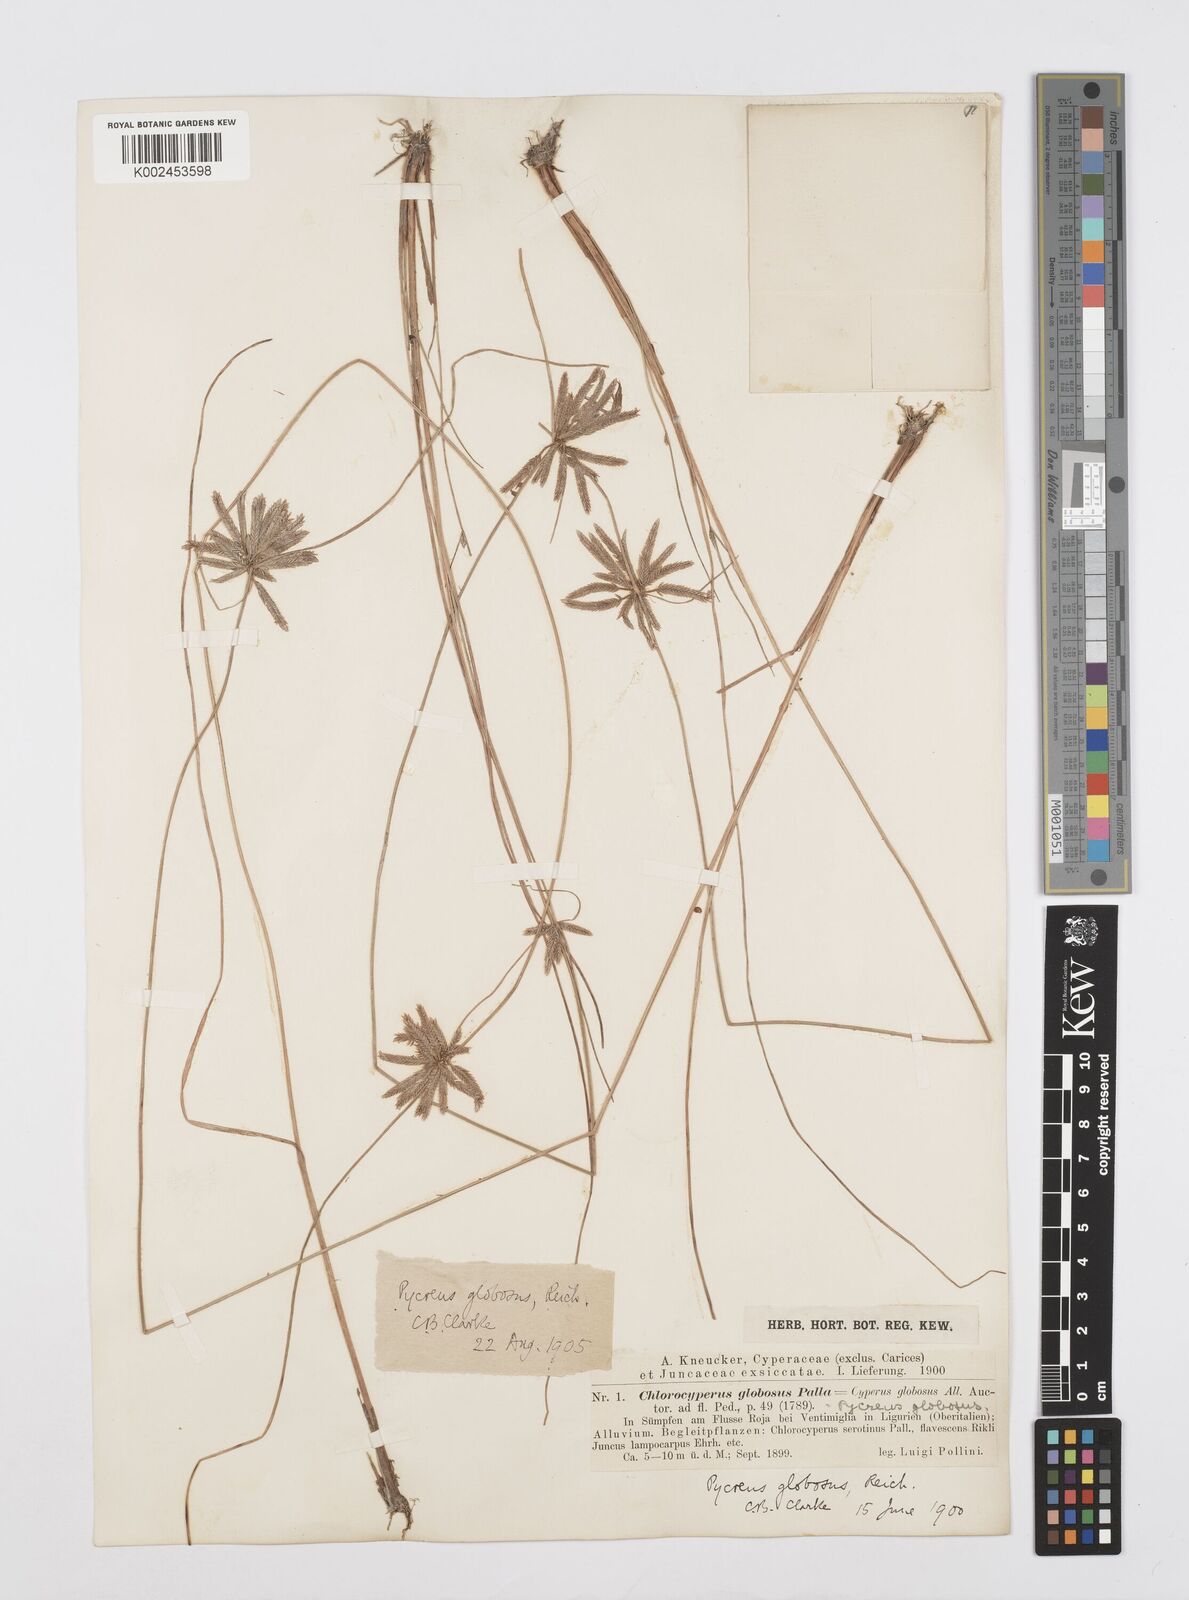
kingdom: Plantae
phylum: Tracheophyta
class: Liliopsida
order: Poales
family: Cyperaceae
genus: Cyperus
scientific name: Cyperus flavidus
